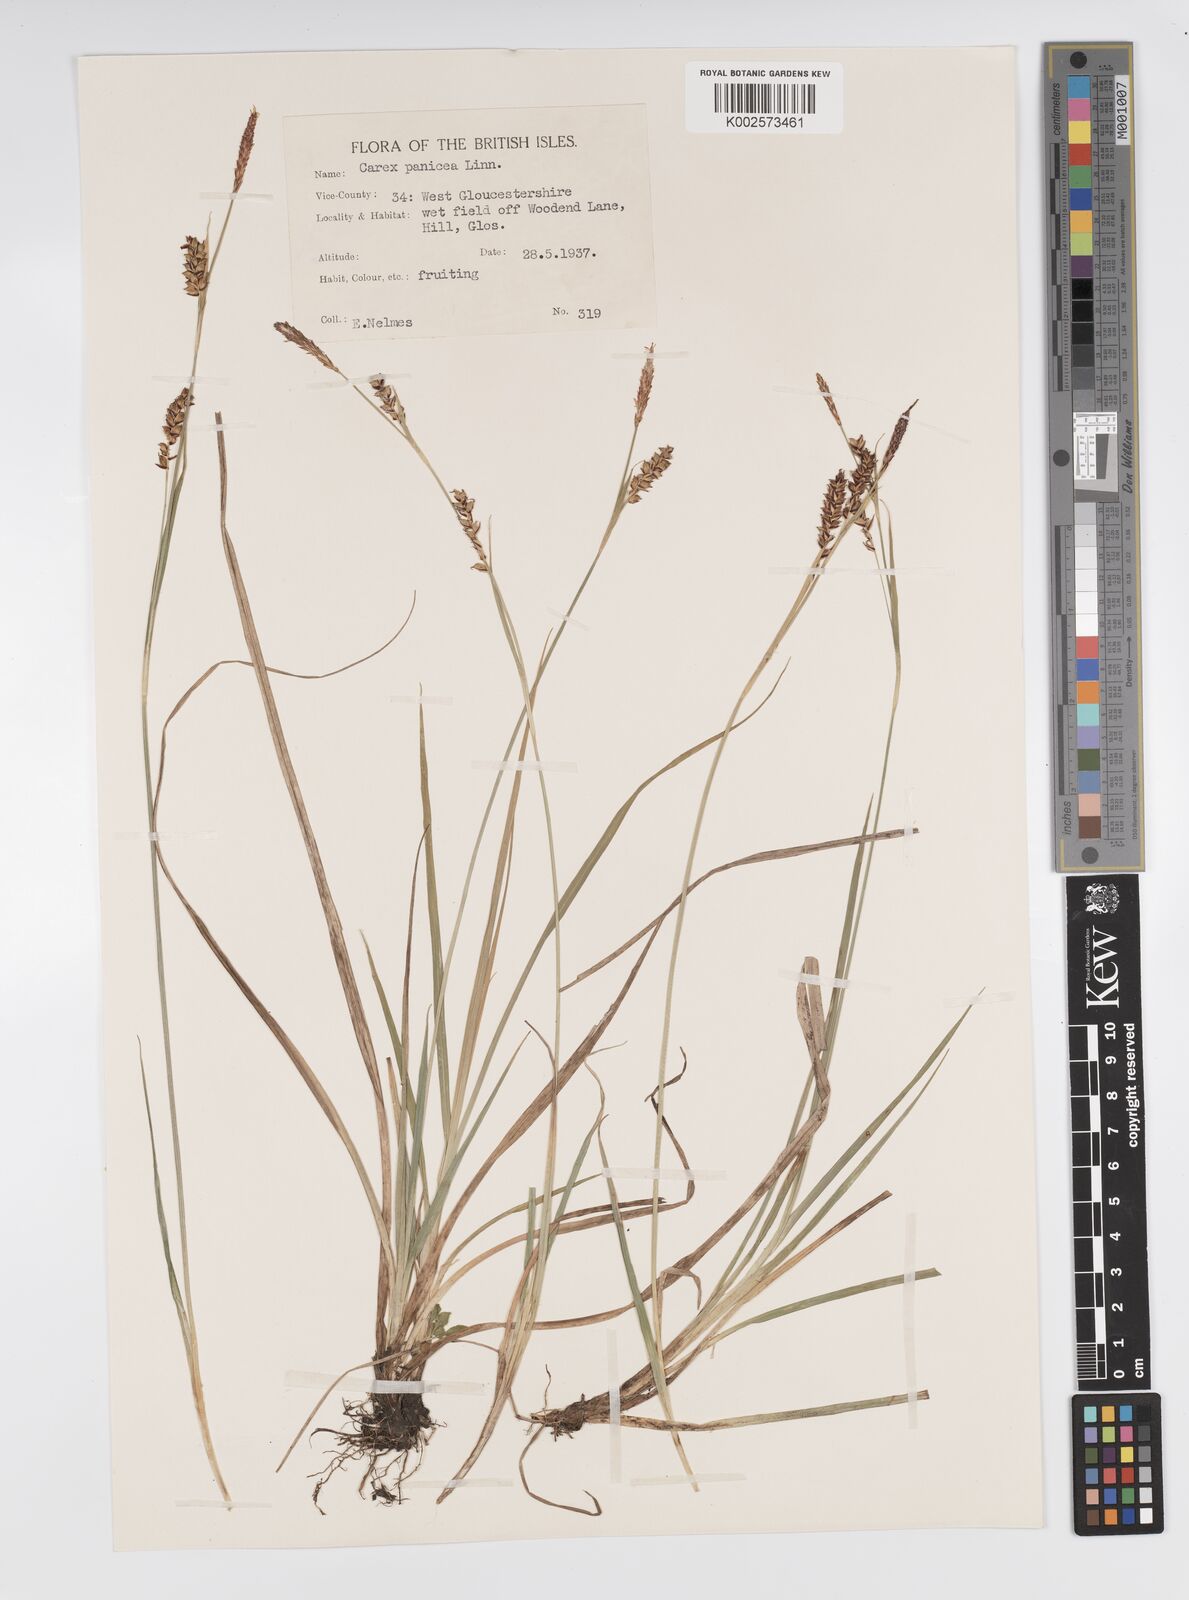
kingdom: Plantae
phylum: Tracheophyta
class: Liliopsida
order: Poales
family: Cyperaceae
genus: Carex
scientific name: Carex panicea
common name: Carnation sedge
